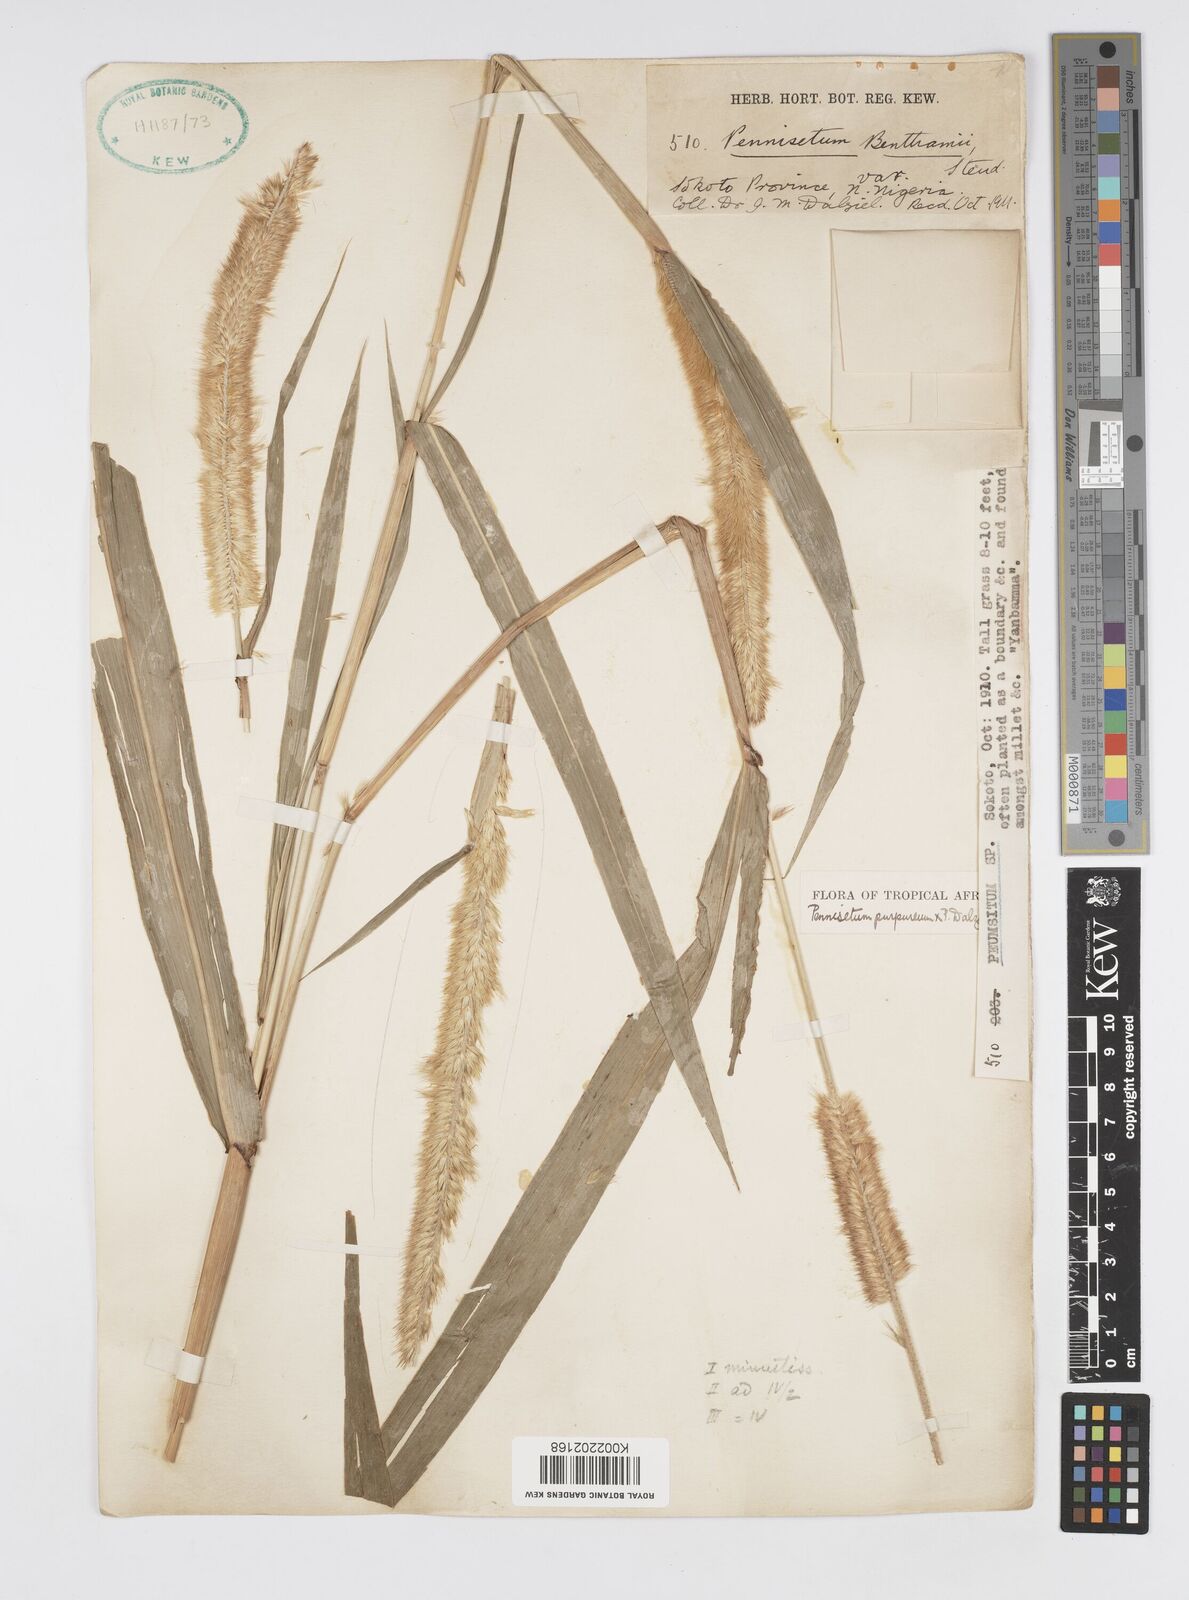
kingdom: Plantae
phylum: Tracheophyta
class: Liliopsida
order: Poales
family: Poaceae
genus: Cenchrus
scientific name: Cenchrus purpureus
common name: Elephant grass
